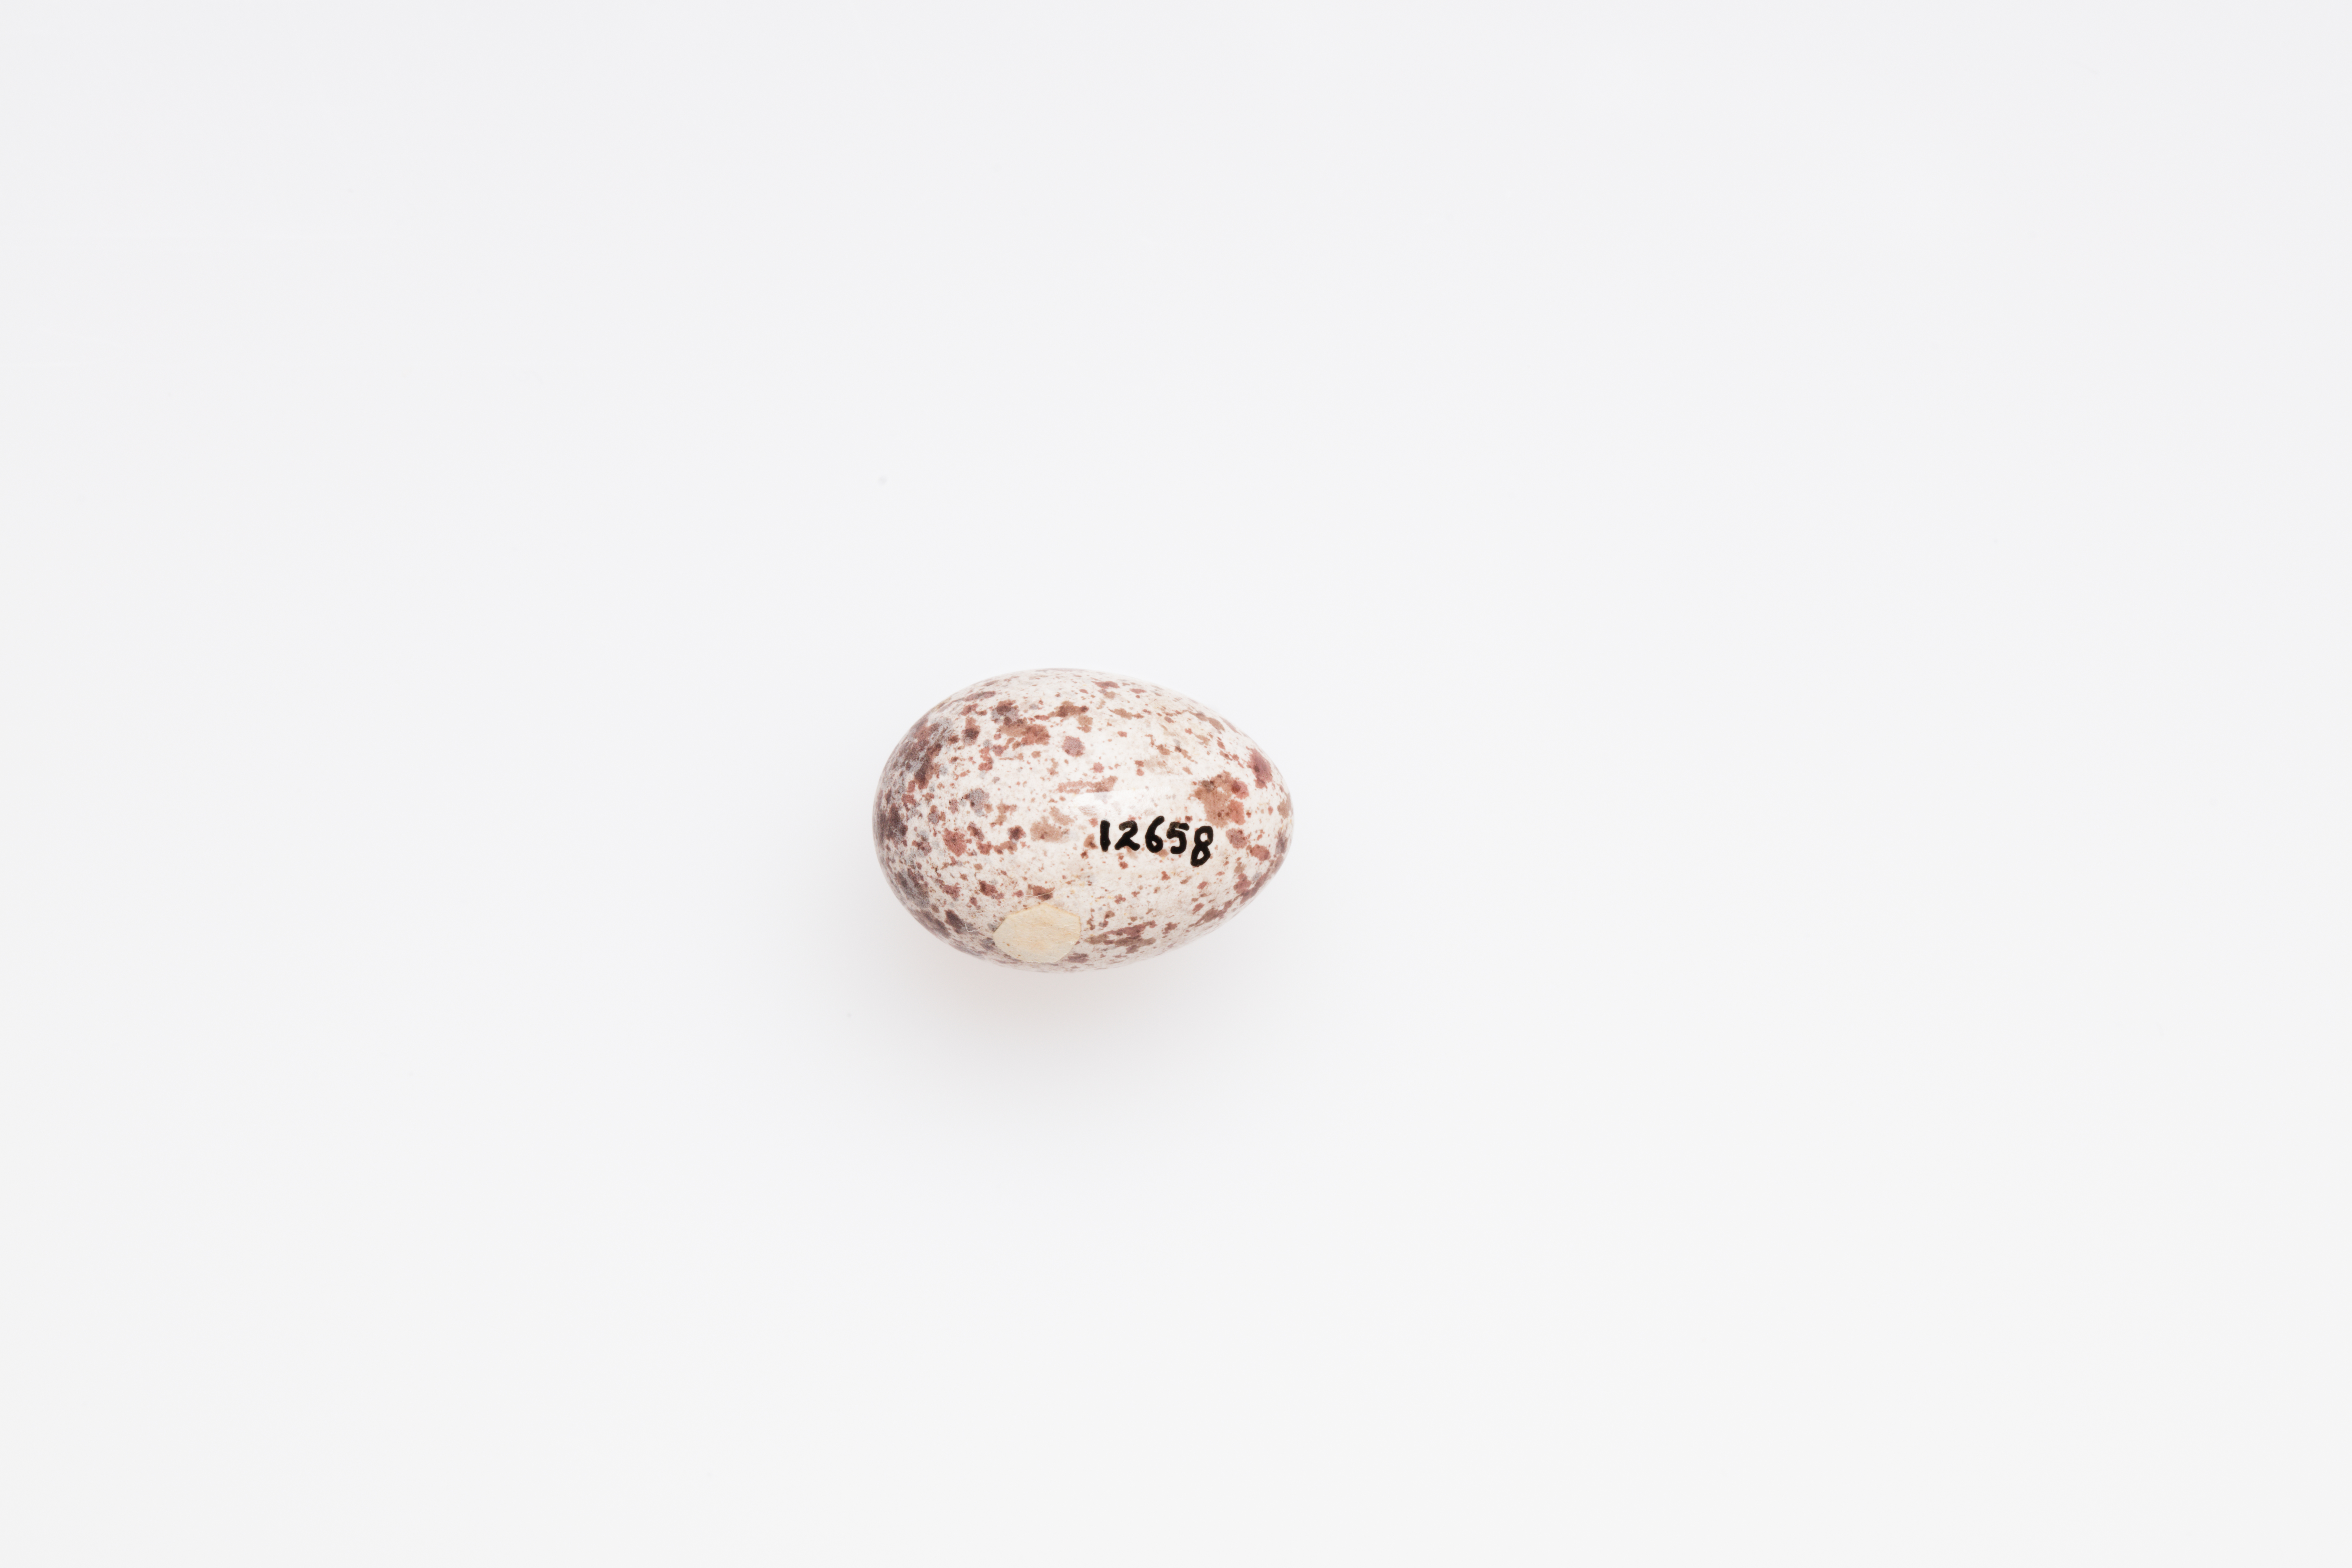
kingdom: Animalia
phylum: Chordata
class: Aves
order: Passeriformes
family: Locustellidae
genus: Megalurus
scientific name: Megalurus gramineus
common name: Little grassbird
